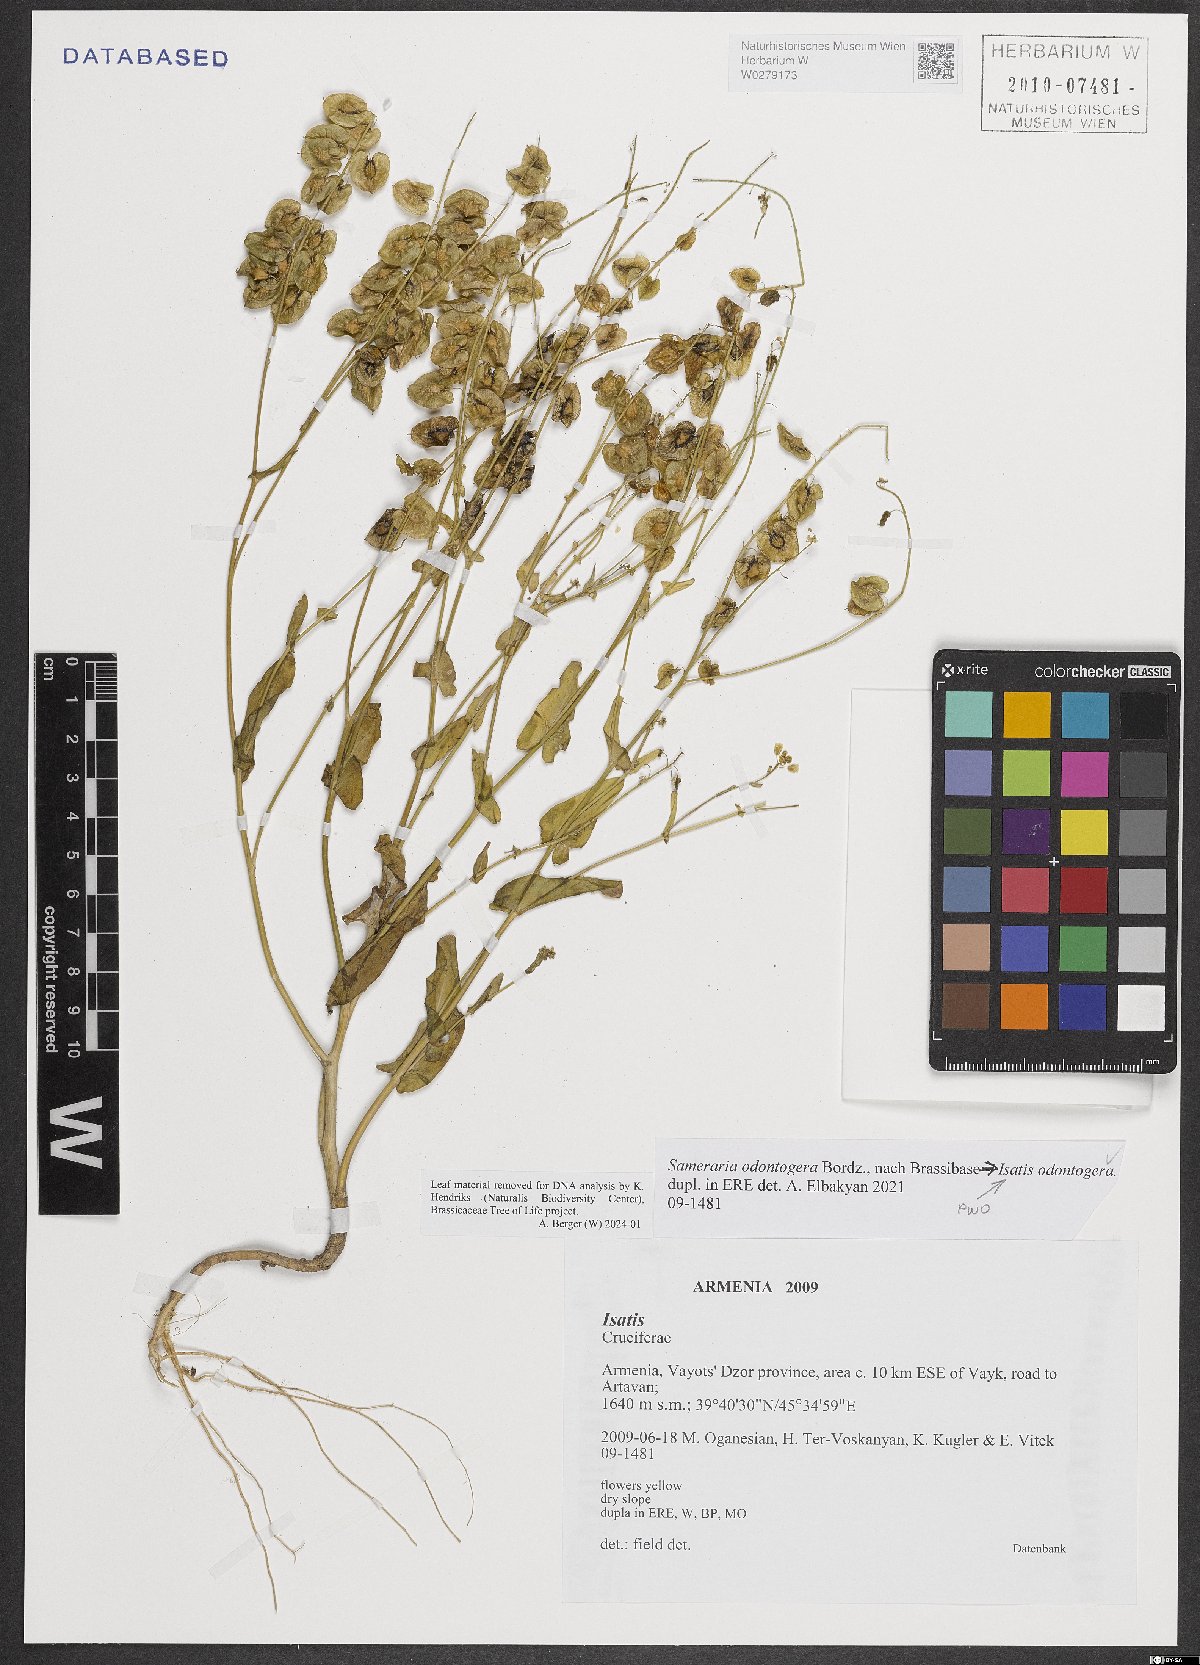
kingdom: Plantae
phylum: Tracheophyta
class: Magnoliopsida
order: Brassicales
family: Brassicaceae
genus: Isatis
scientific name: Isatis odontogera
